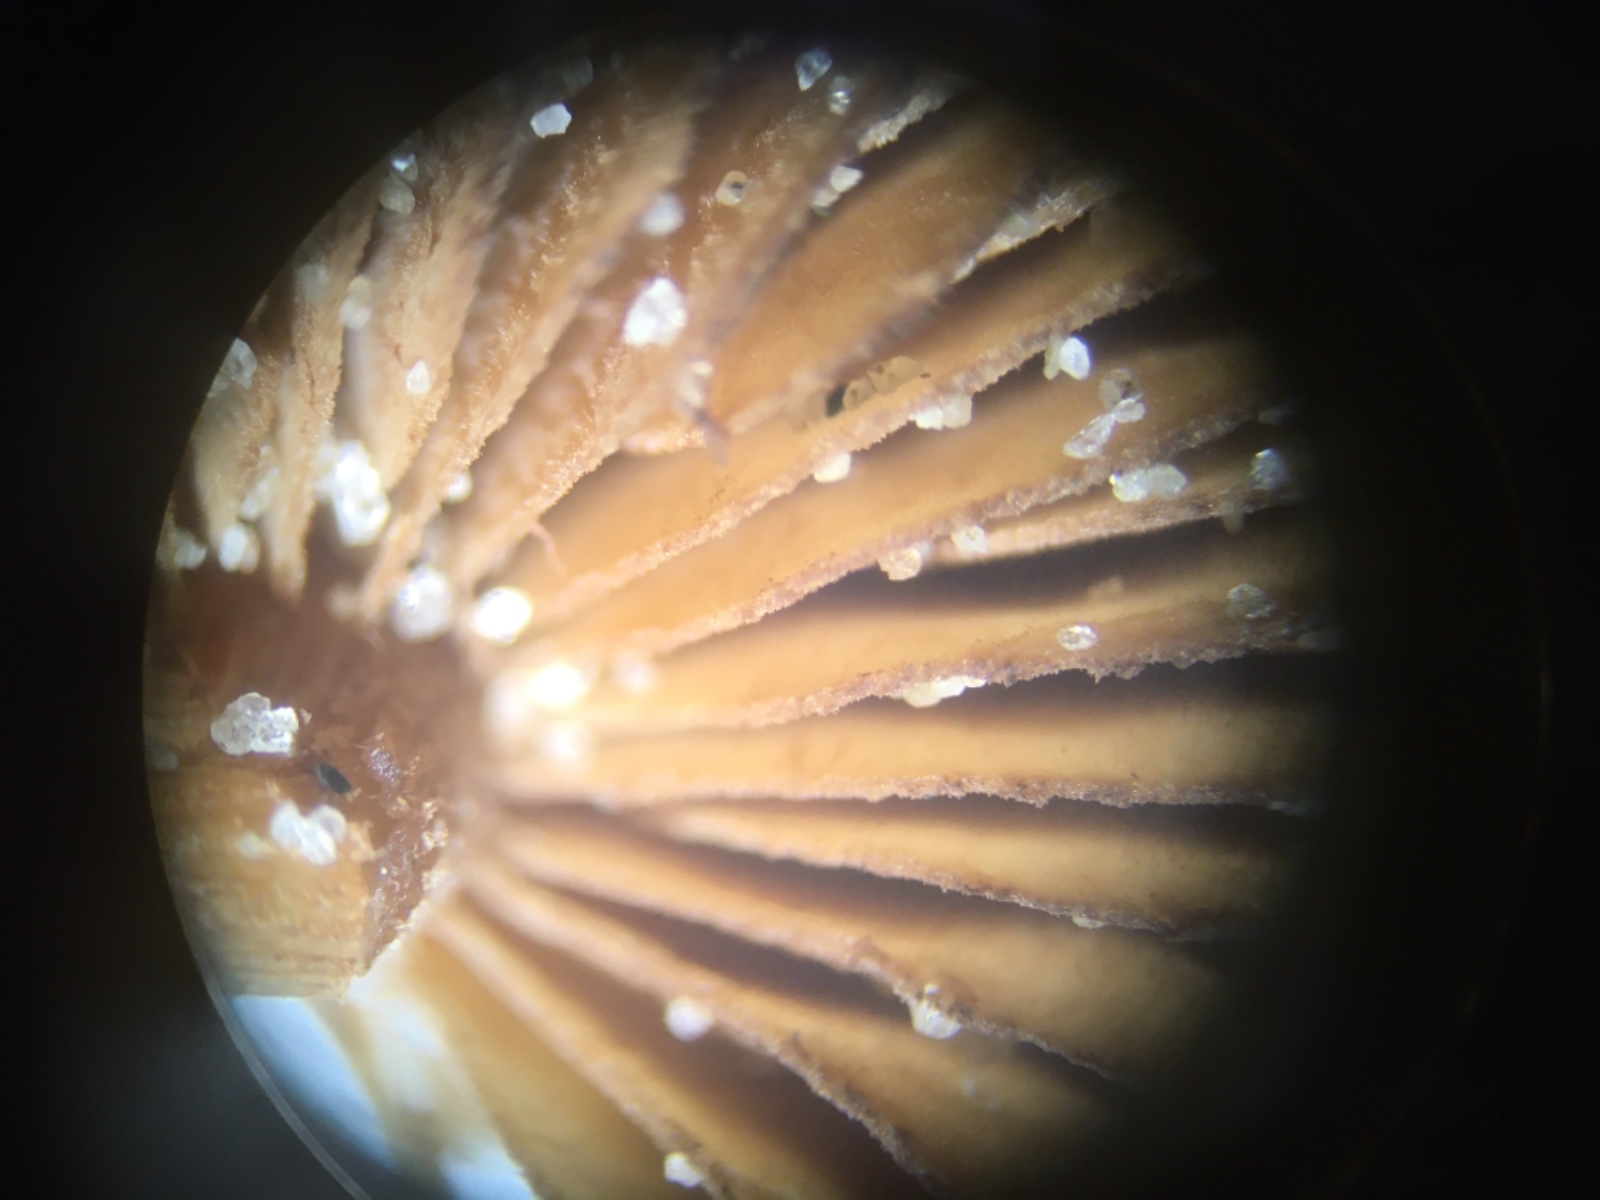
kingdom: Fungi
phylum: Basidiomycota
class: Agaricomycetes
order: Agaricales
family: Inocybaceae
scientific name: Inocybaceae
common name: trævlhatfamilien
